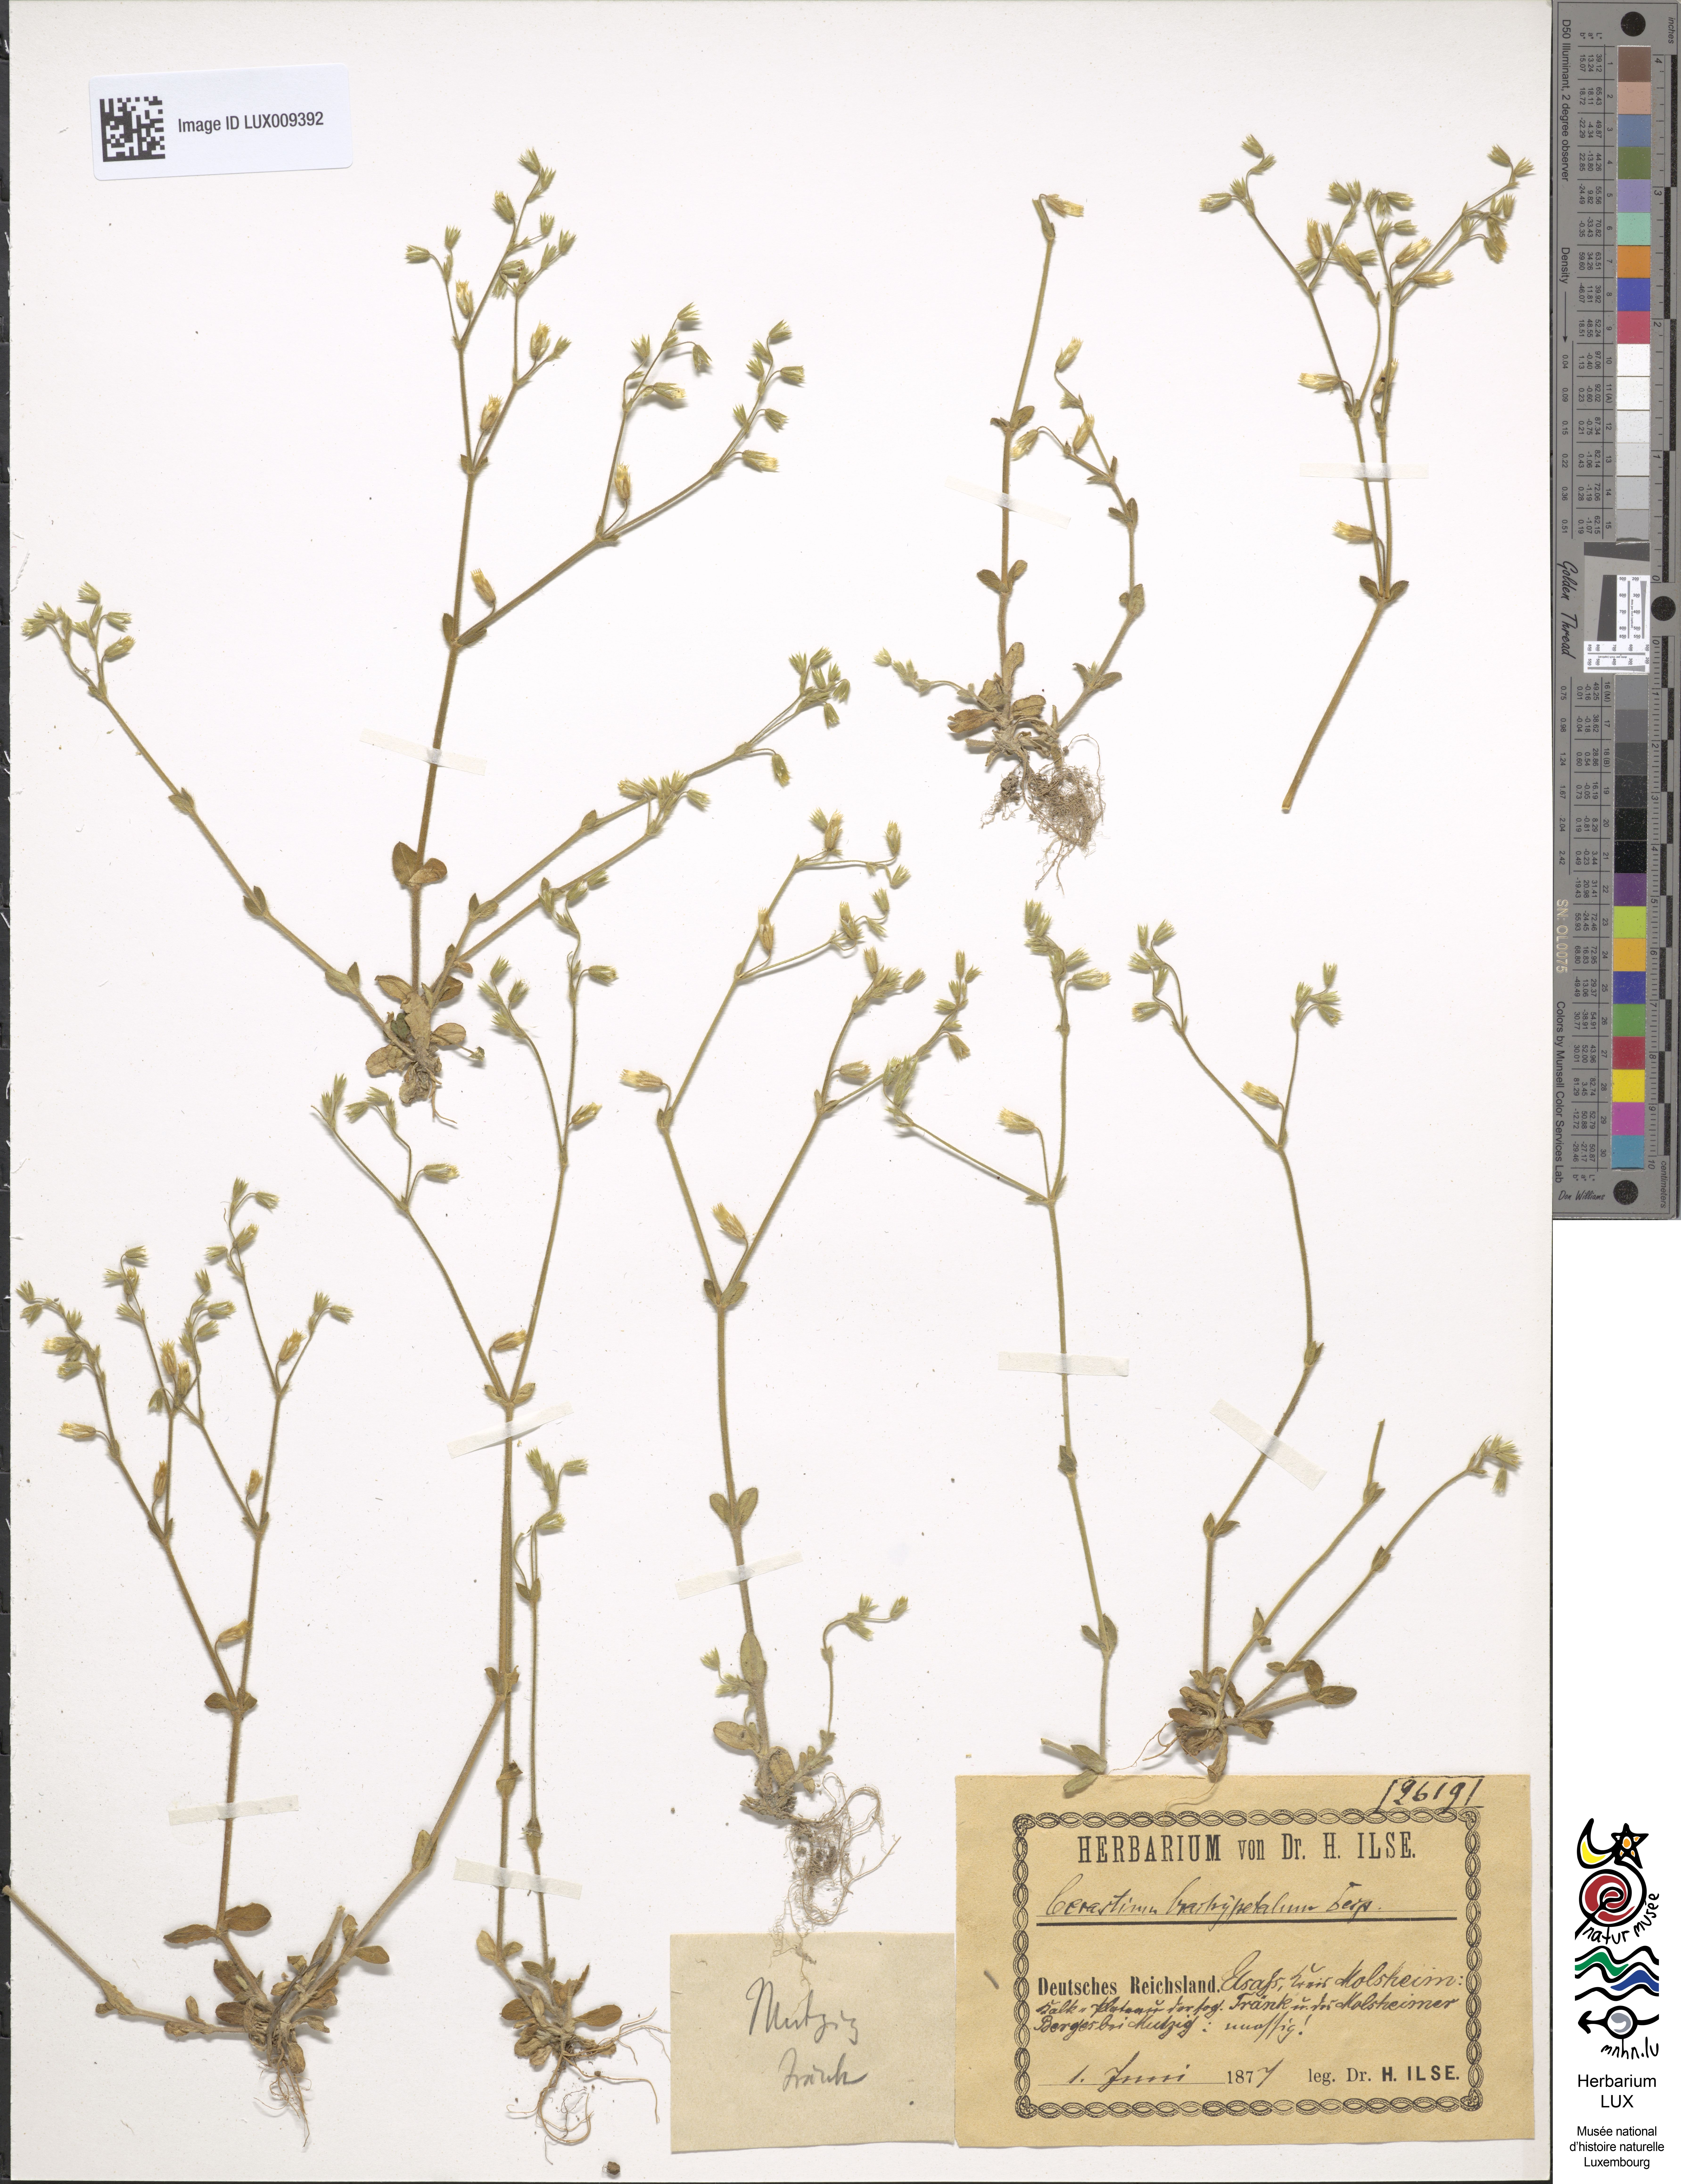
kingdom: Plantae
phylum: Tracheophyta
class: Magnoliopsida
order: Caryophyllales
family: Caryophyllaceae
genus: Cerastium
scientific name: Cerastium brachypetalum
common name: Grey mouse-ear
